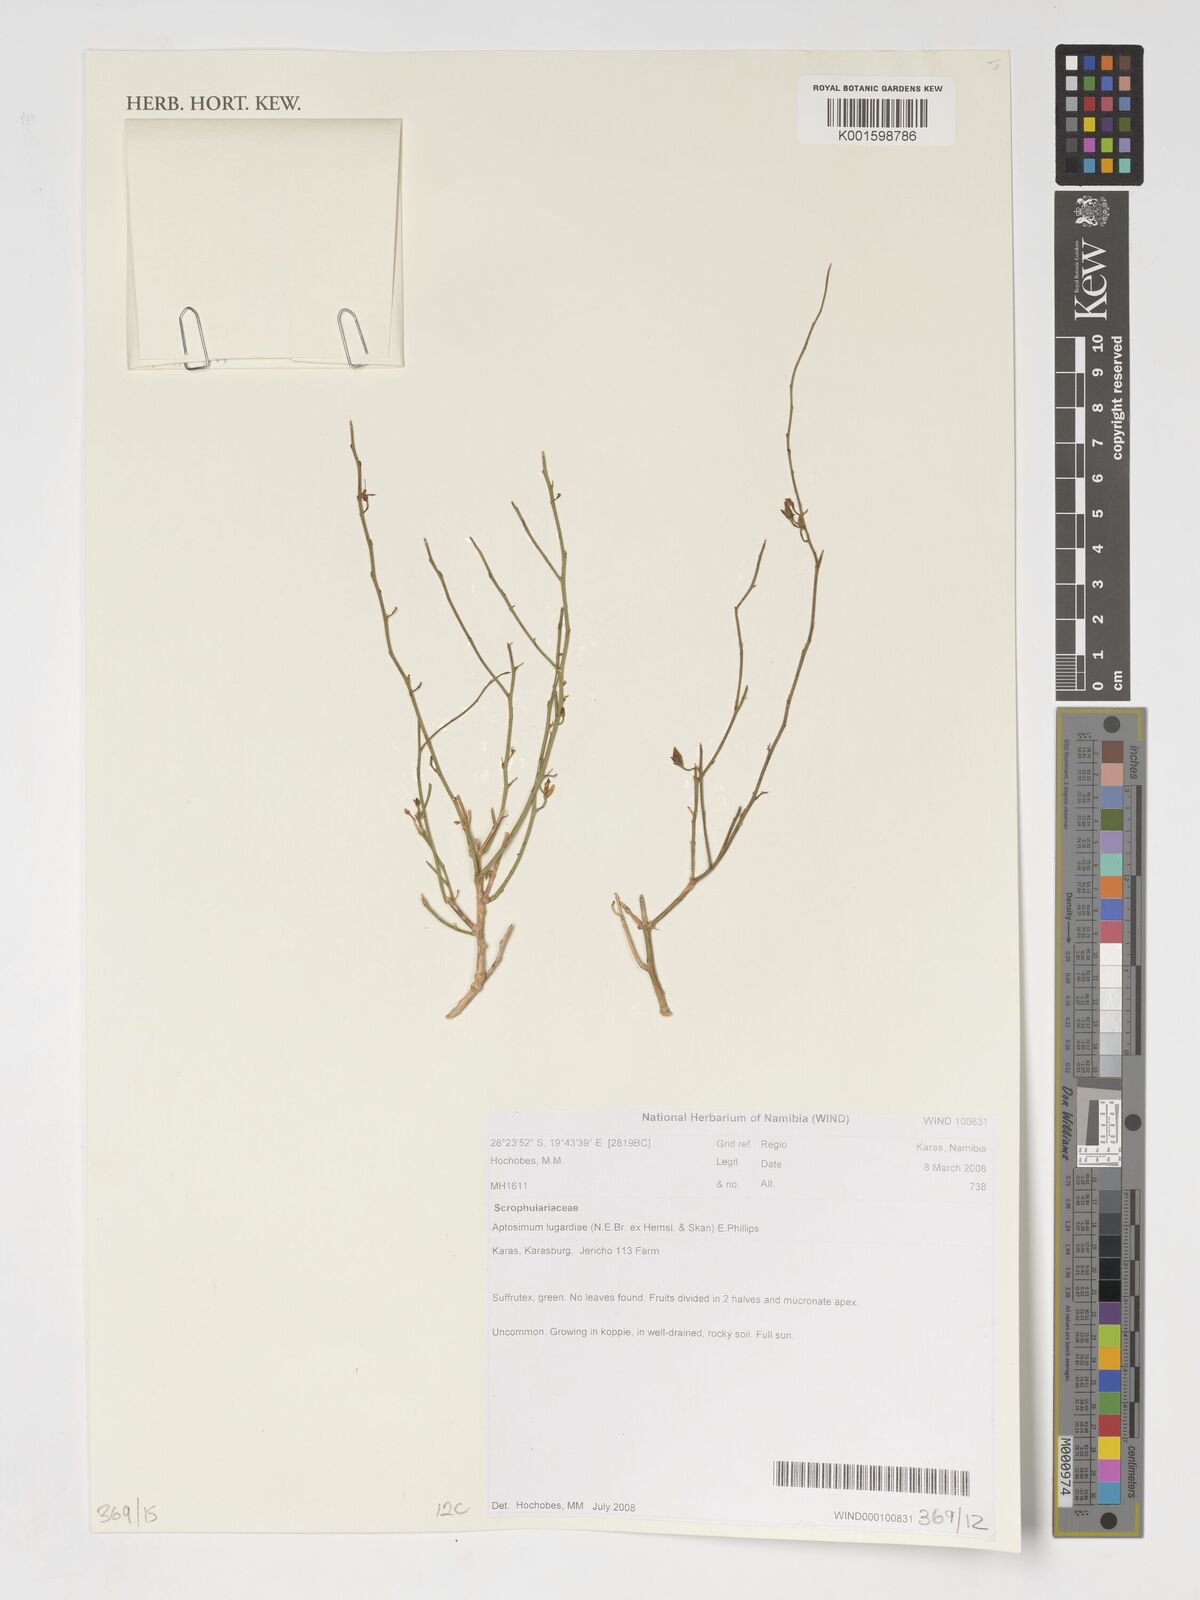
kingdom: Plantae
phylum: Tracheophyta
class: Magnoliopsida
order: Lamiales
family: Scrophulariaceae
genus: Peliostomum
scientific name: Peliostomum lugardiae
